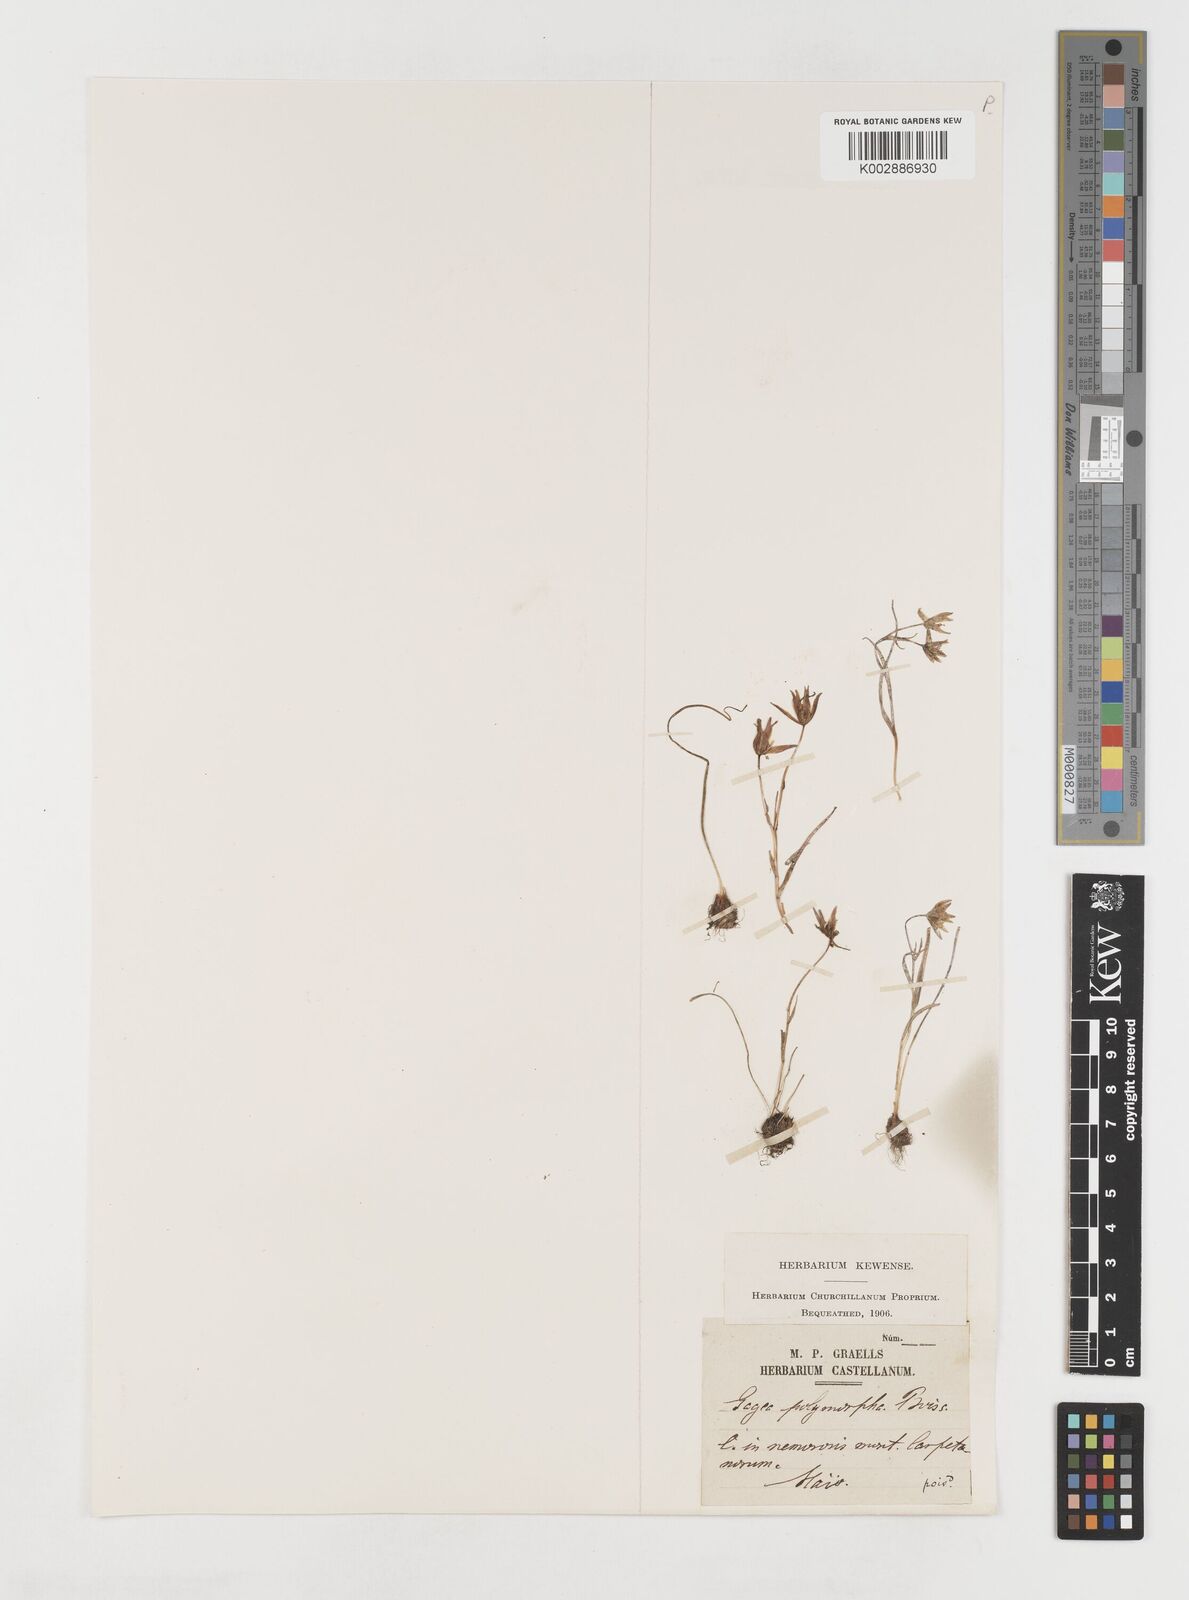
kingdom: Plantae
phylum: Tracheophyta
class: Liliopsida
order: Liliales
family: Liliaceae
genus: Gagea
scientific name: Gagea soleirolii
